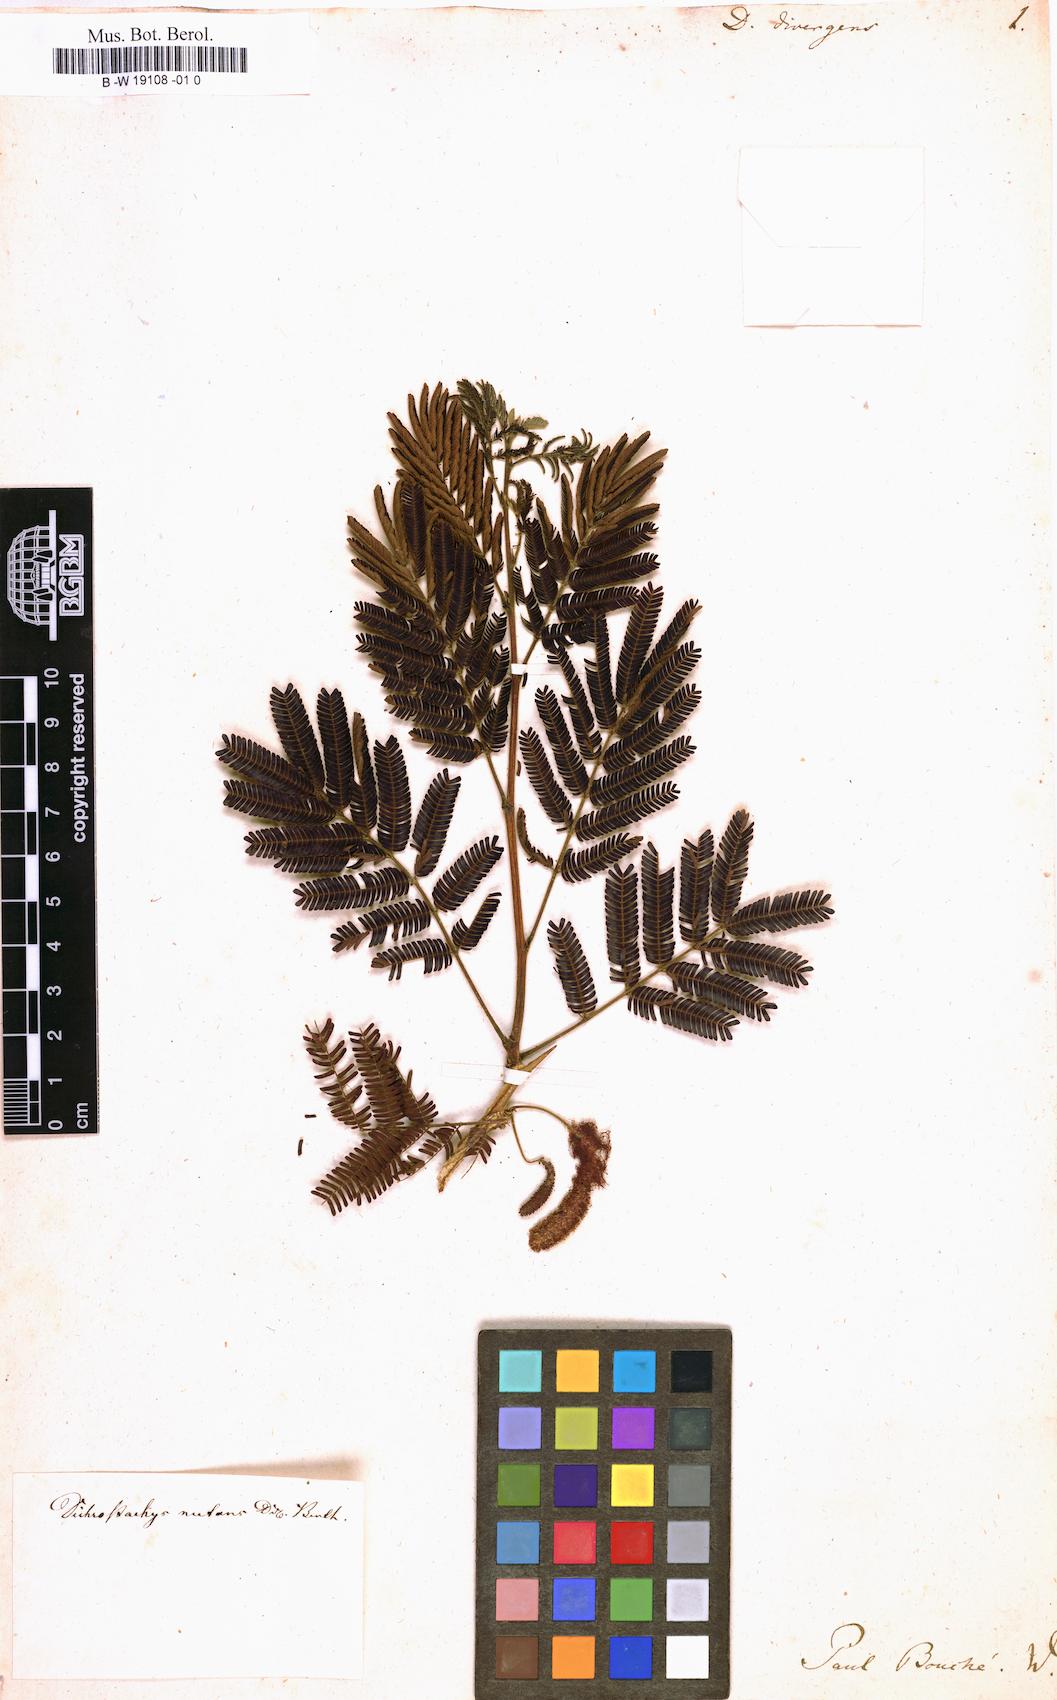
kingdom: Plantae
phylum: Tracheophyta
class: Magnoliopsida
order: Fabales
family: Fabaceae
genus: Dichrostachys
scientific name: Dichrostachys cinerea
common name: Sicklebush
